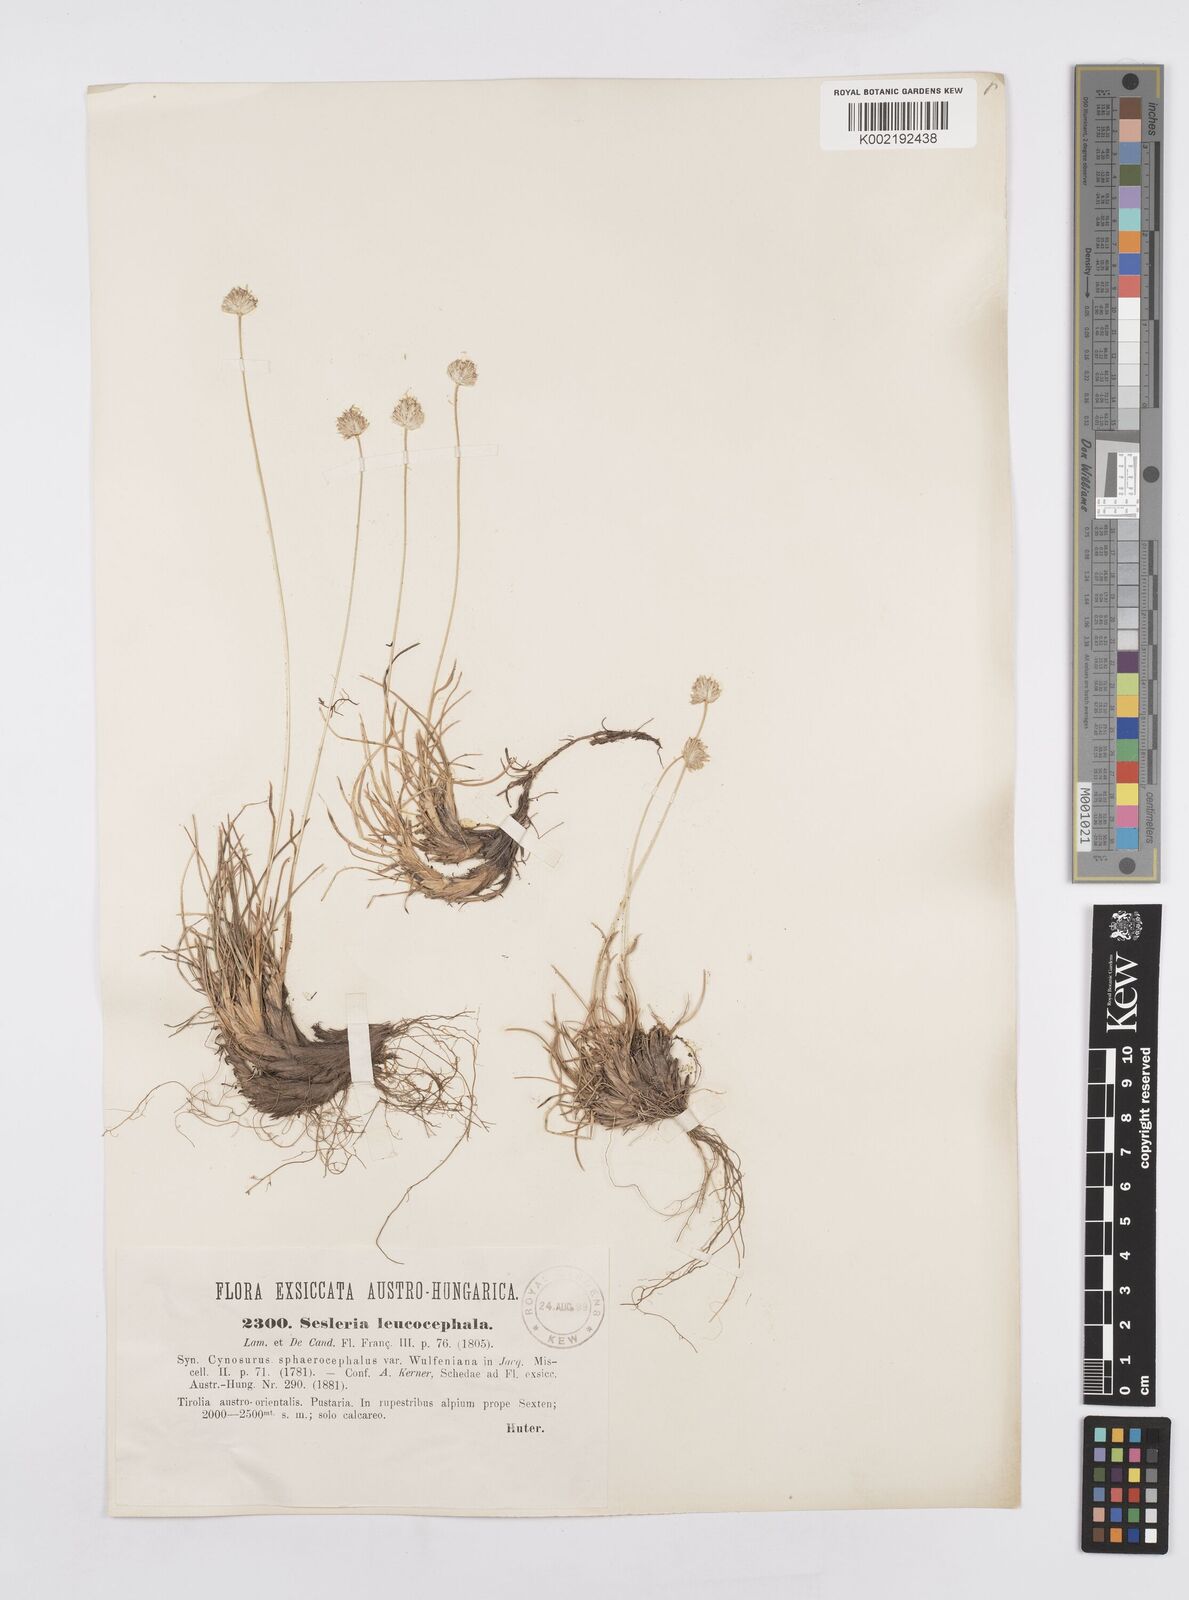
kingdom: Plantae
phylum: Tracheophyta
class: Liliopsida
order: Poales
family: Poaceae
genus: Sesleriella
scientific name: Sesleriella sphaerocephala
